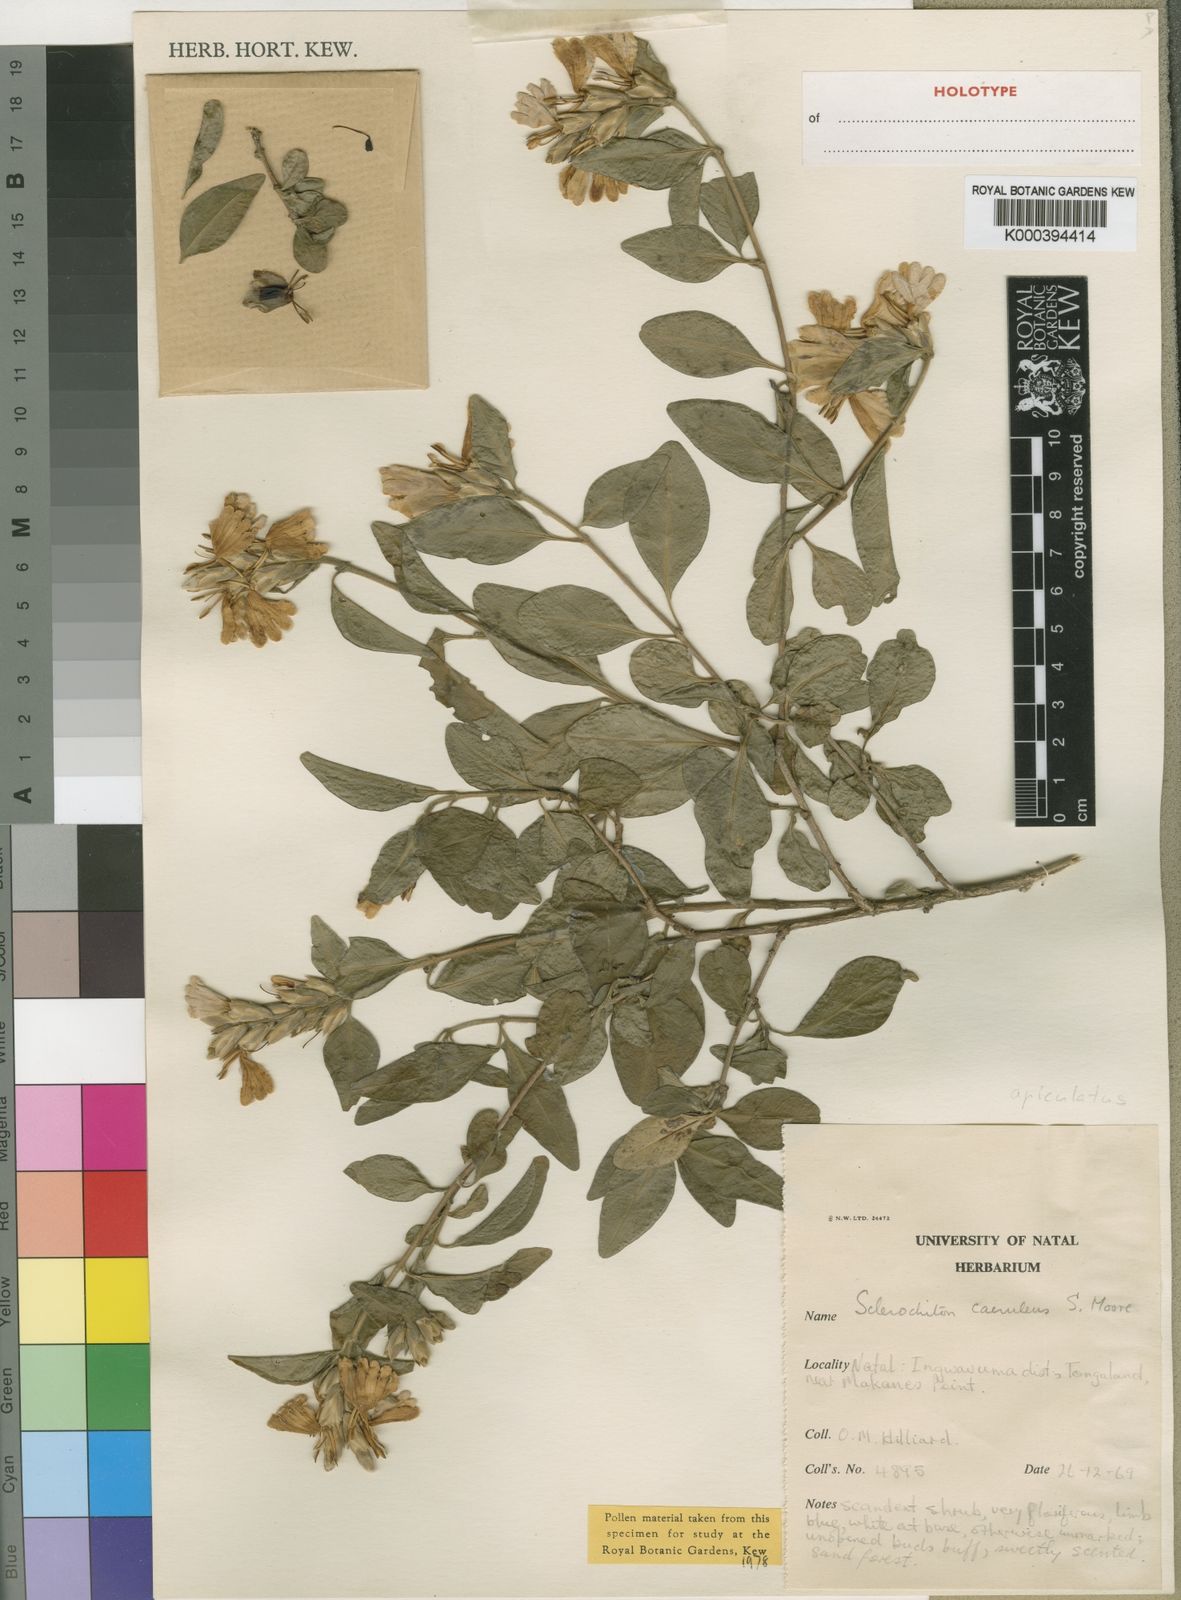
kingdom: Plantae
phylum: Tracheophyta
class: Magnoliopsida
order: Lamiales
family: Acanthaceae
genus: Sclerochiton
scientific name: Sclerochiton apiculatus
